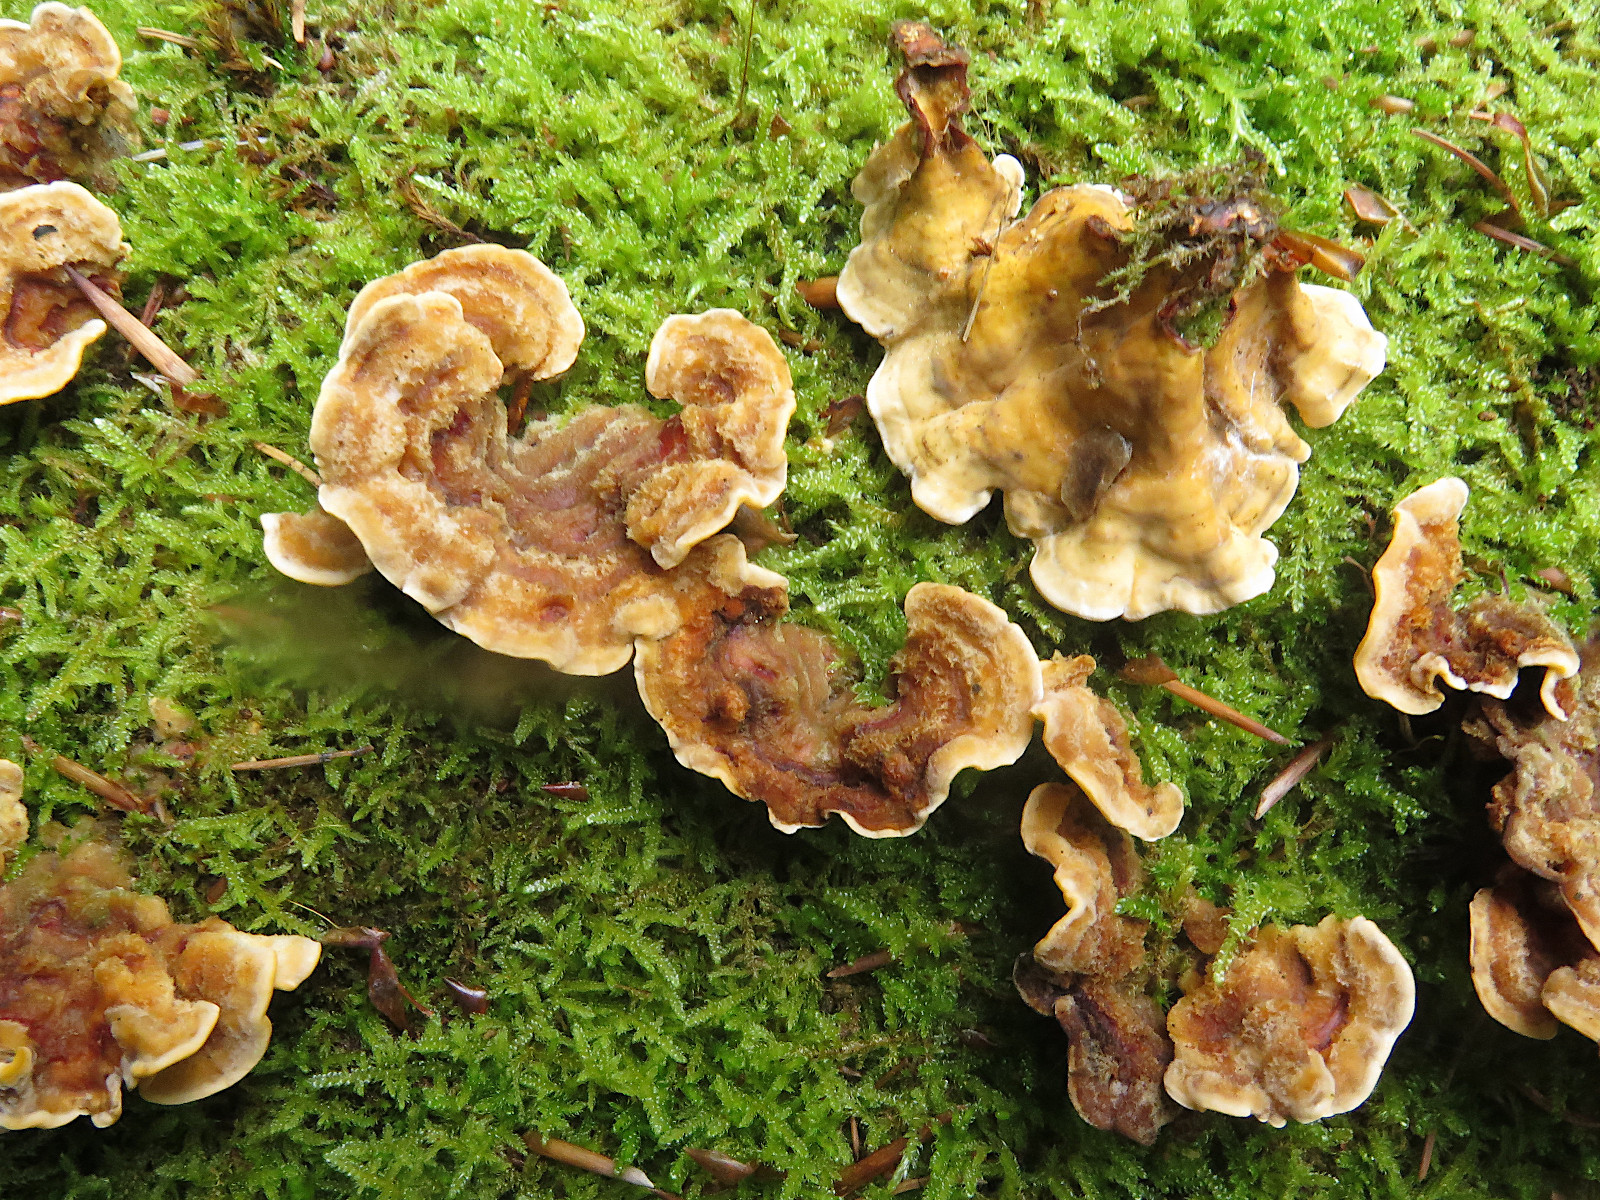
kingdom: Fungi
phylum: Basidiomycota
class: Agaricomycetes
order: Russulales
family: Stereaceae
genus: Stereum
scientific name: Stereum hirsutum
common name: håret lædersvamp
